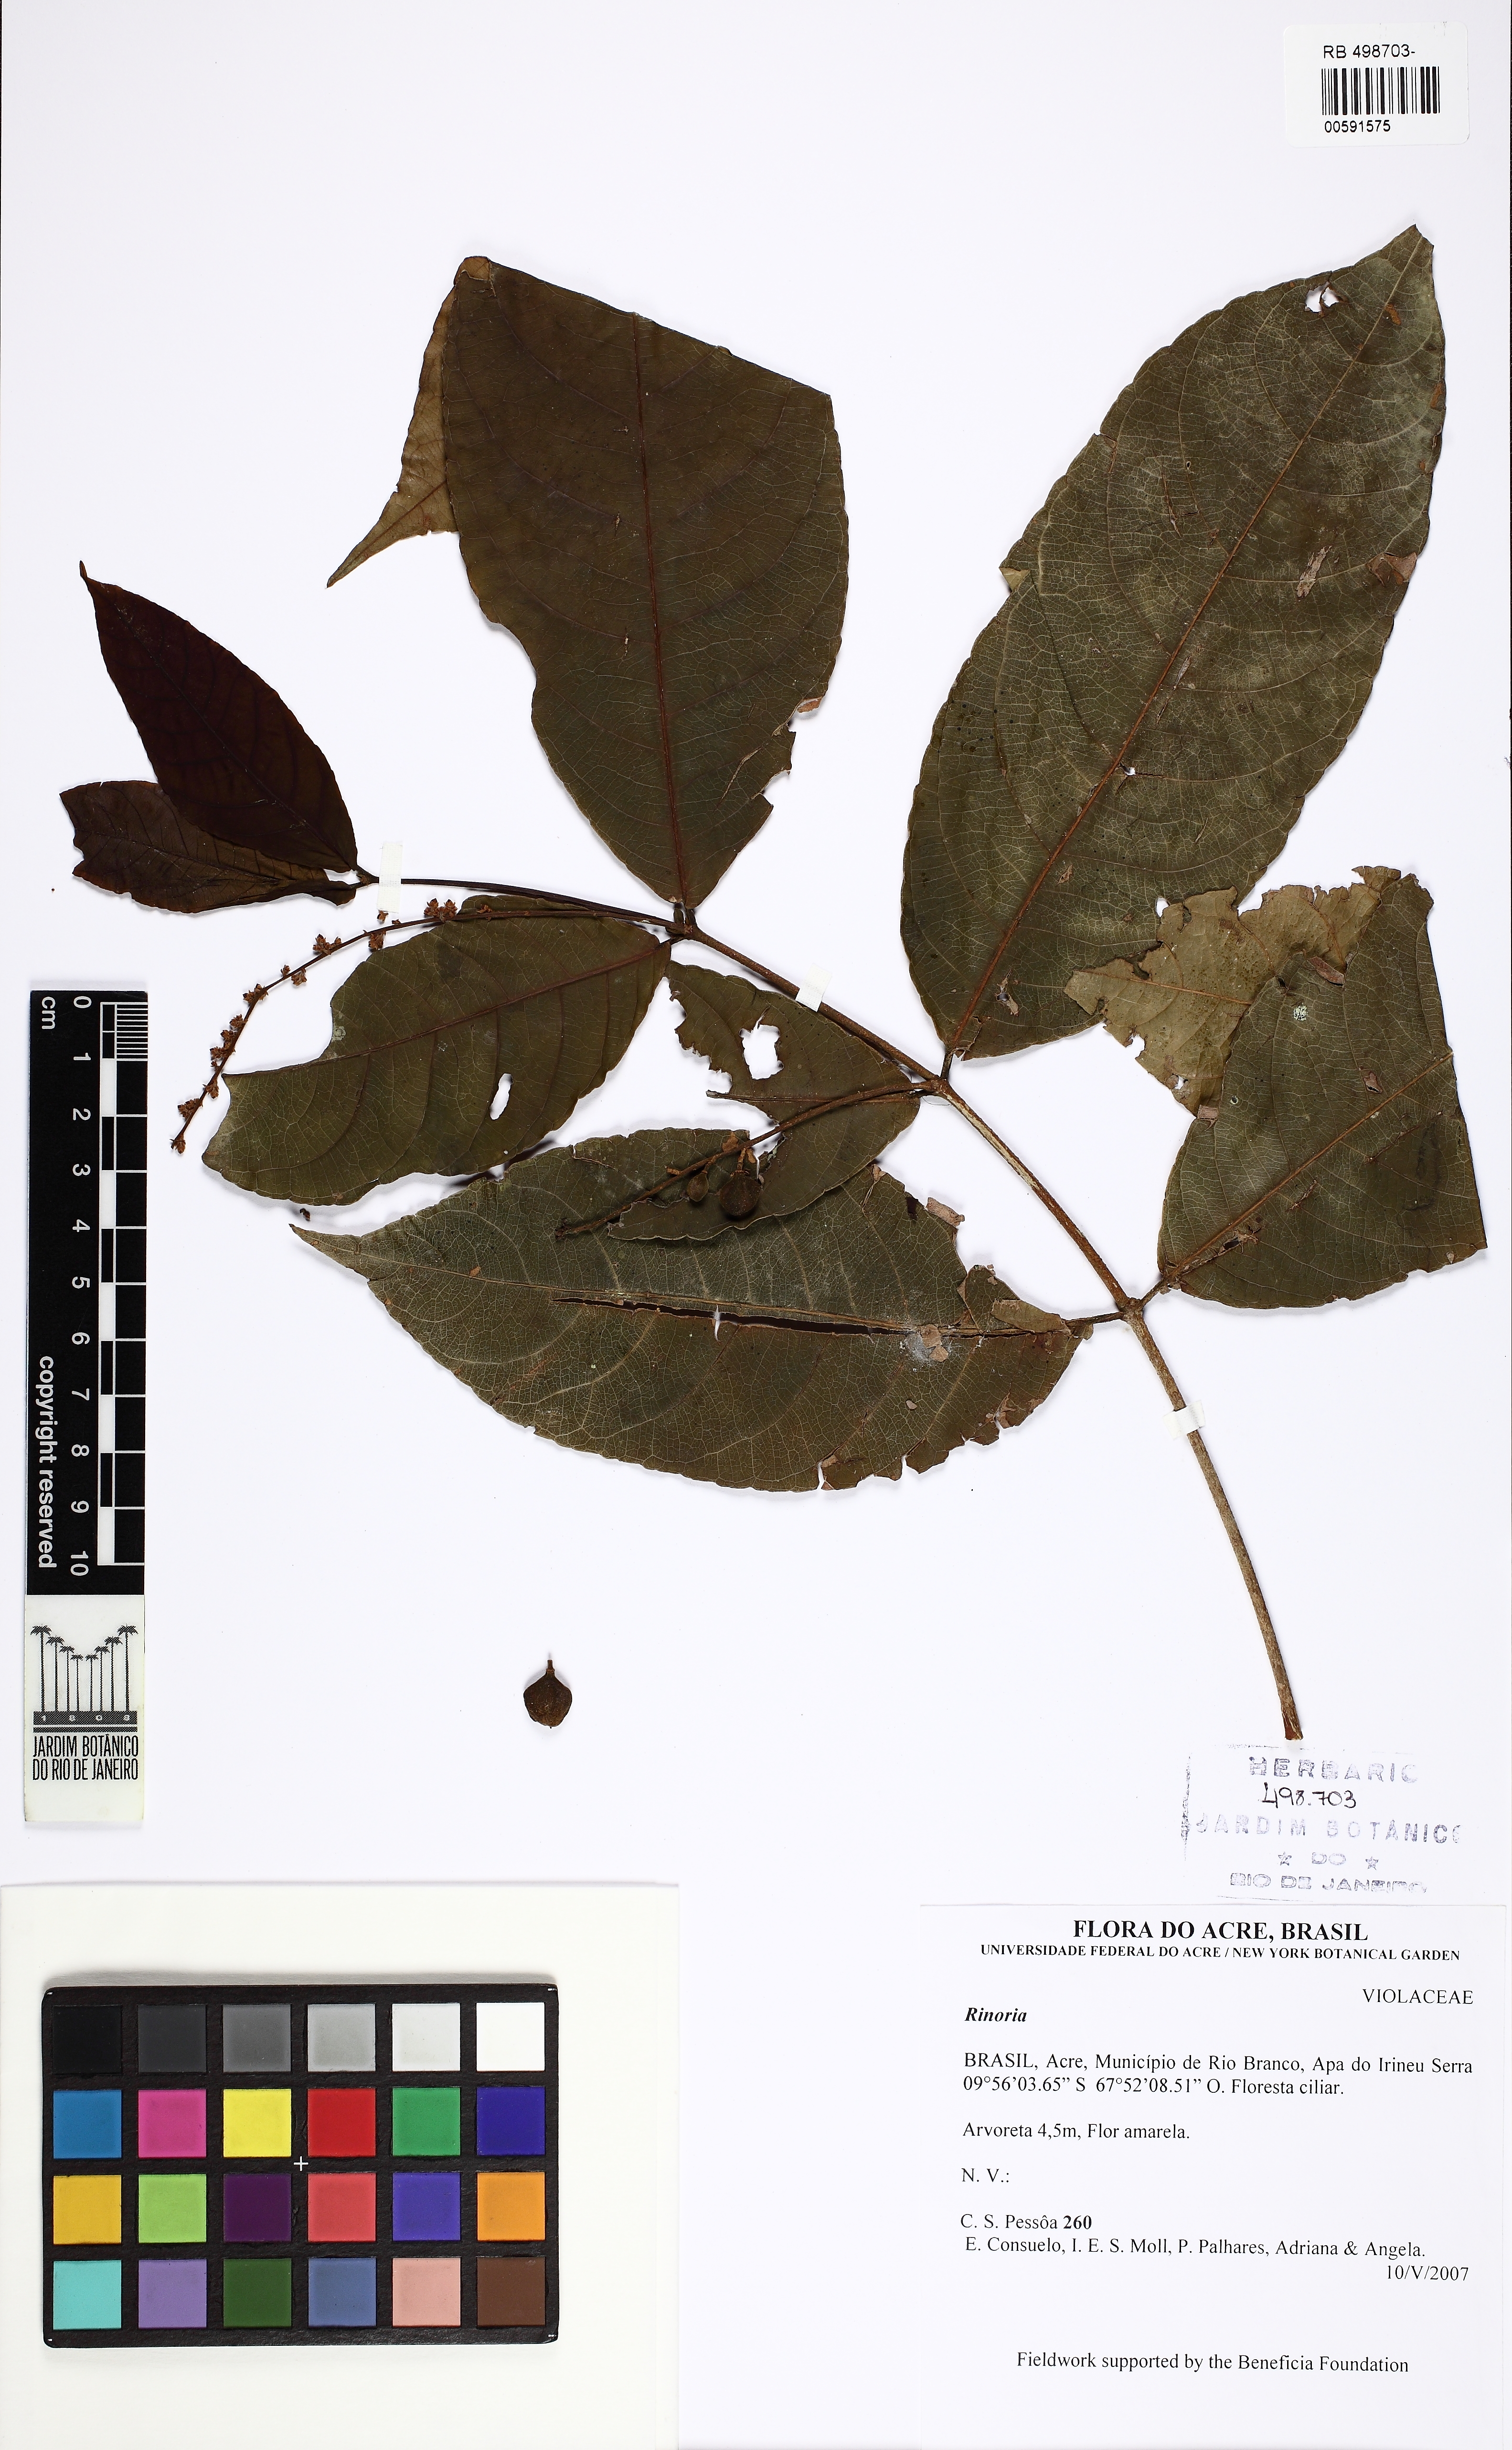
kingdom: Plantae
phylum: Tracheophyta
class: Magnoliopsida
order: Malpighiales
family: Violaceae
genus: Rinorea
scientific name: Rinorea
